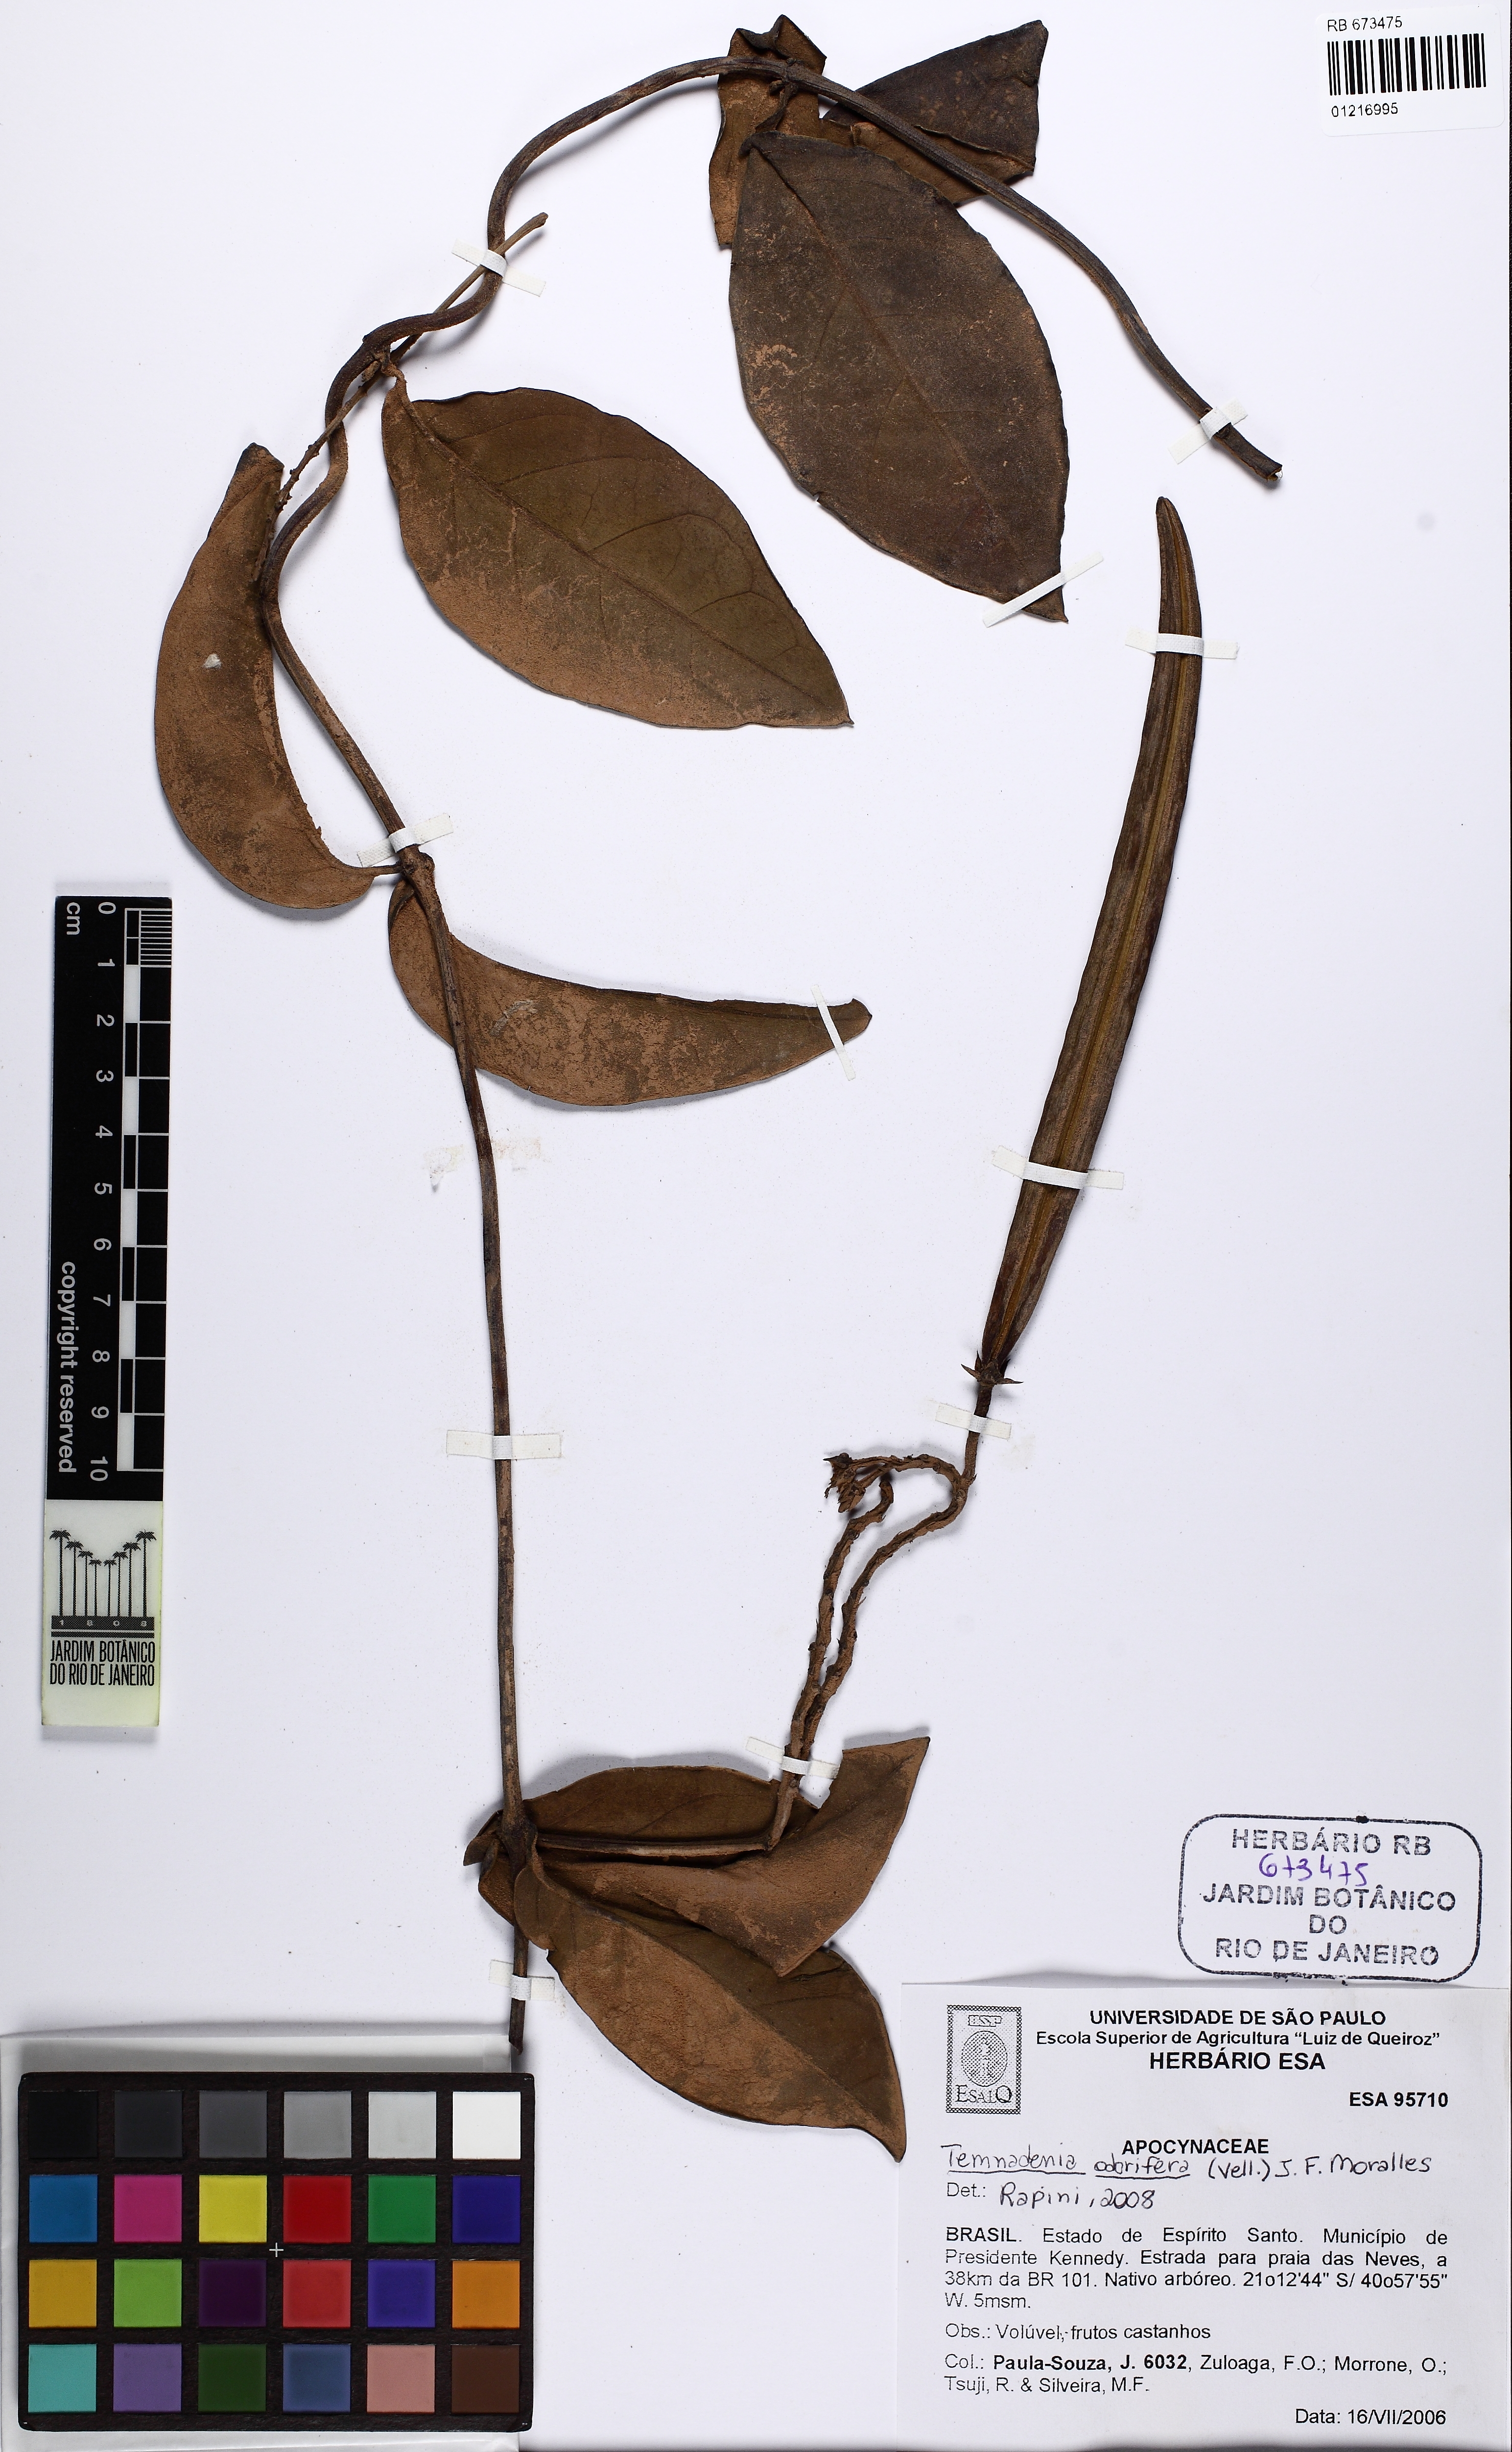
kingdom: Plantae
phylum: Tracheophyta
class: Magnoliopsida
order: Gentianales
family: Apocynaceae
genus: Temnadenia
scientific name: Temnadenia odorifera
